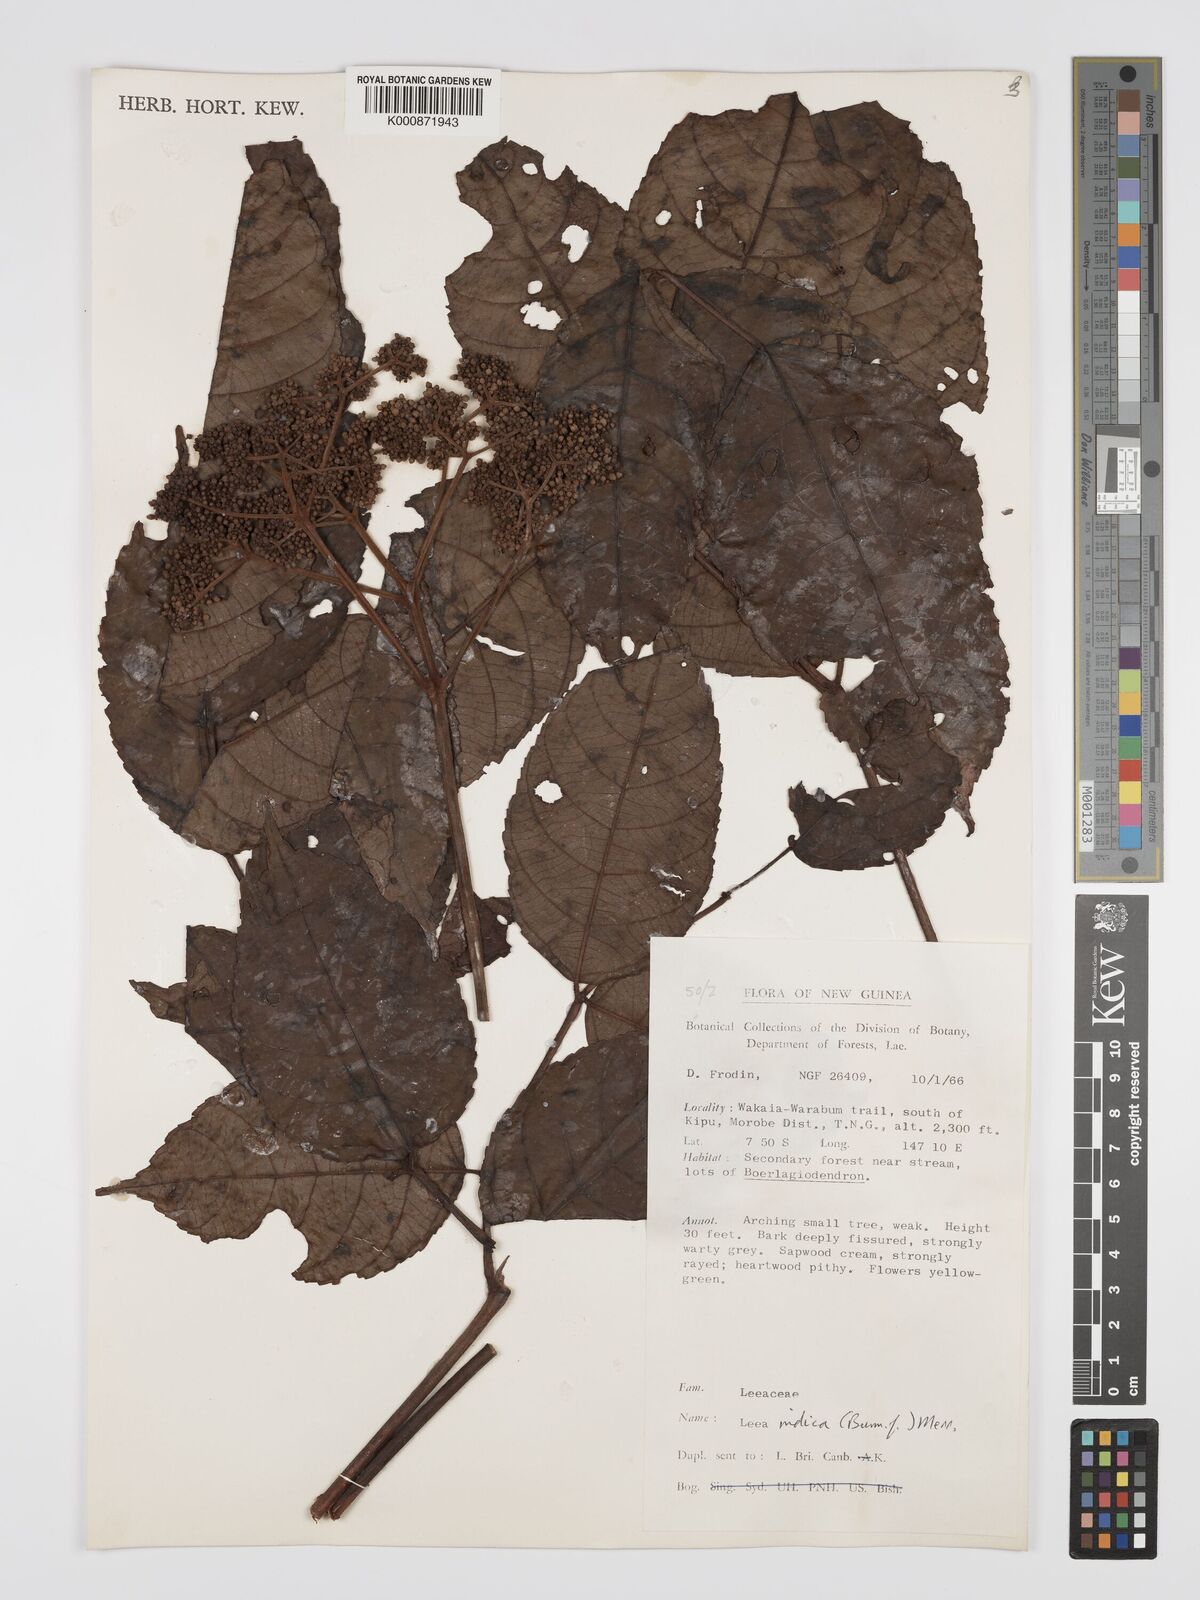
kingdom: Plantae
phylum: Tracheophyta
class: Magnoliopsida
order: Vitales
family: Vitaceae
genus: Leea
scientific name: Leea indica
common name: Bandicoot-berry
